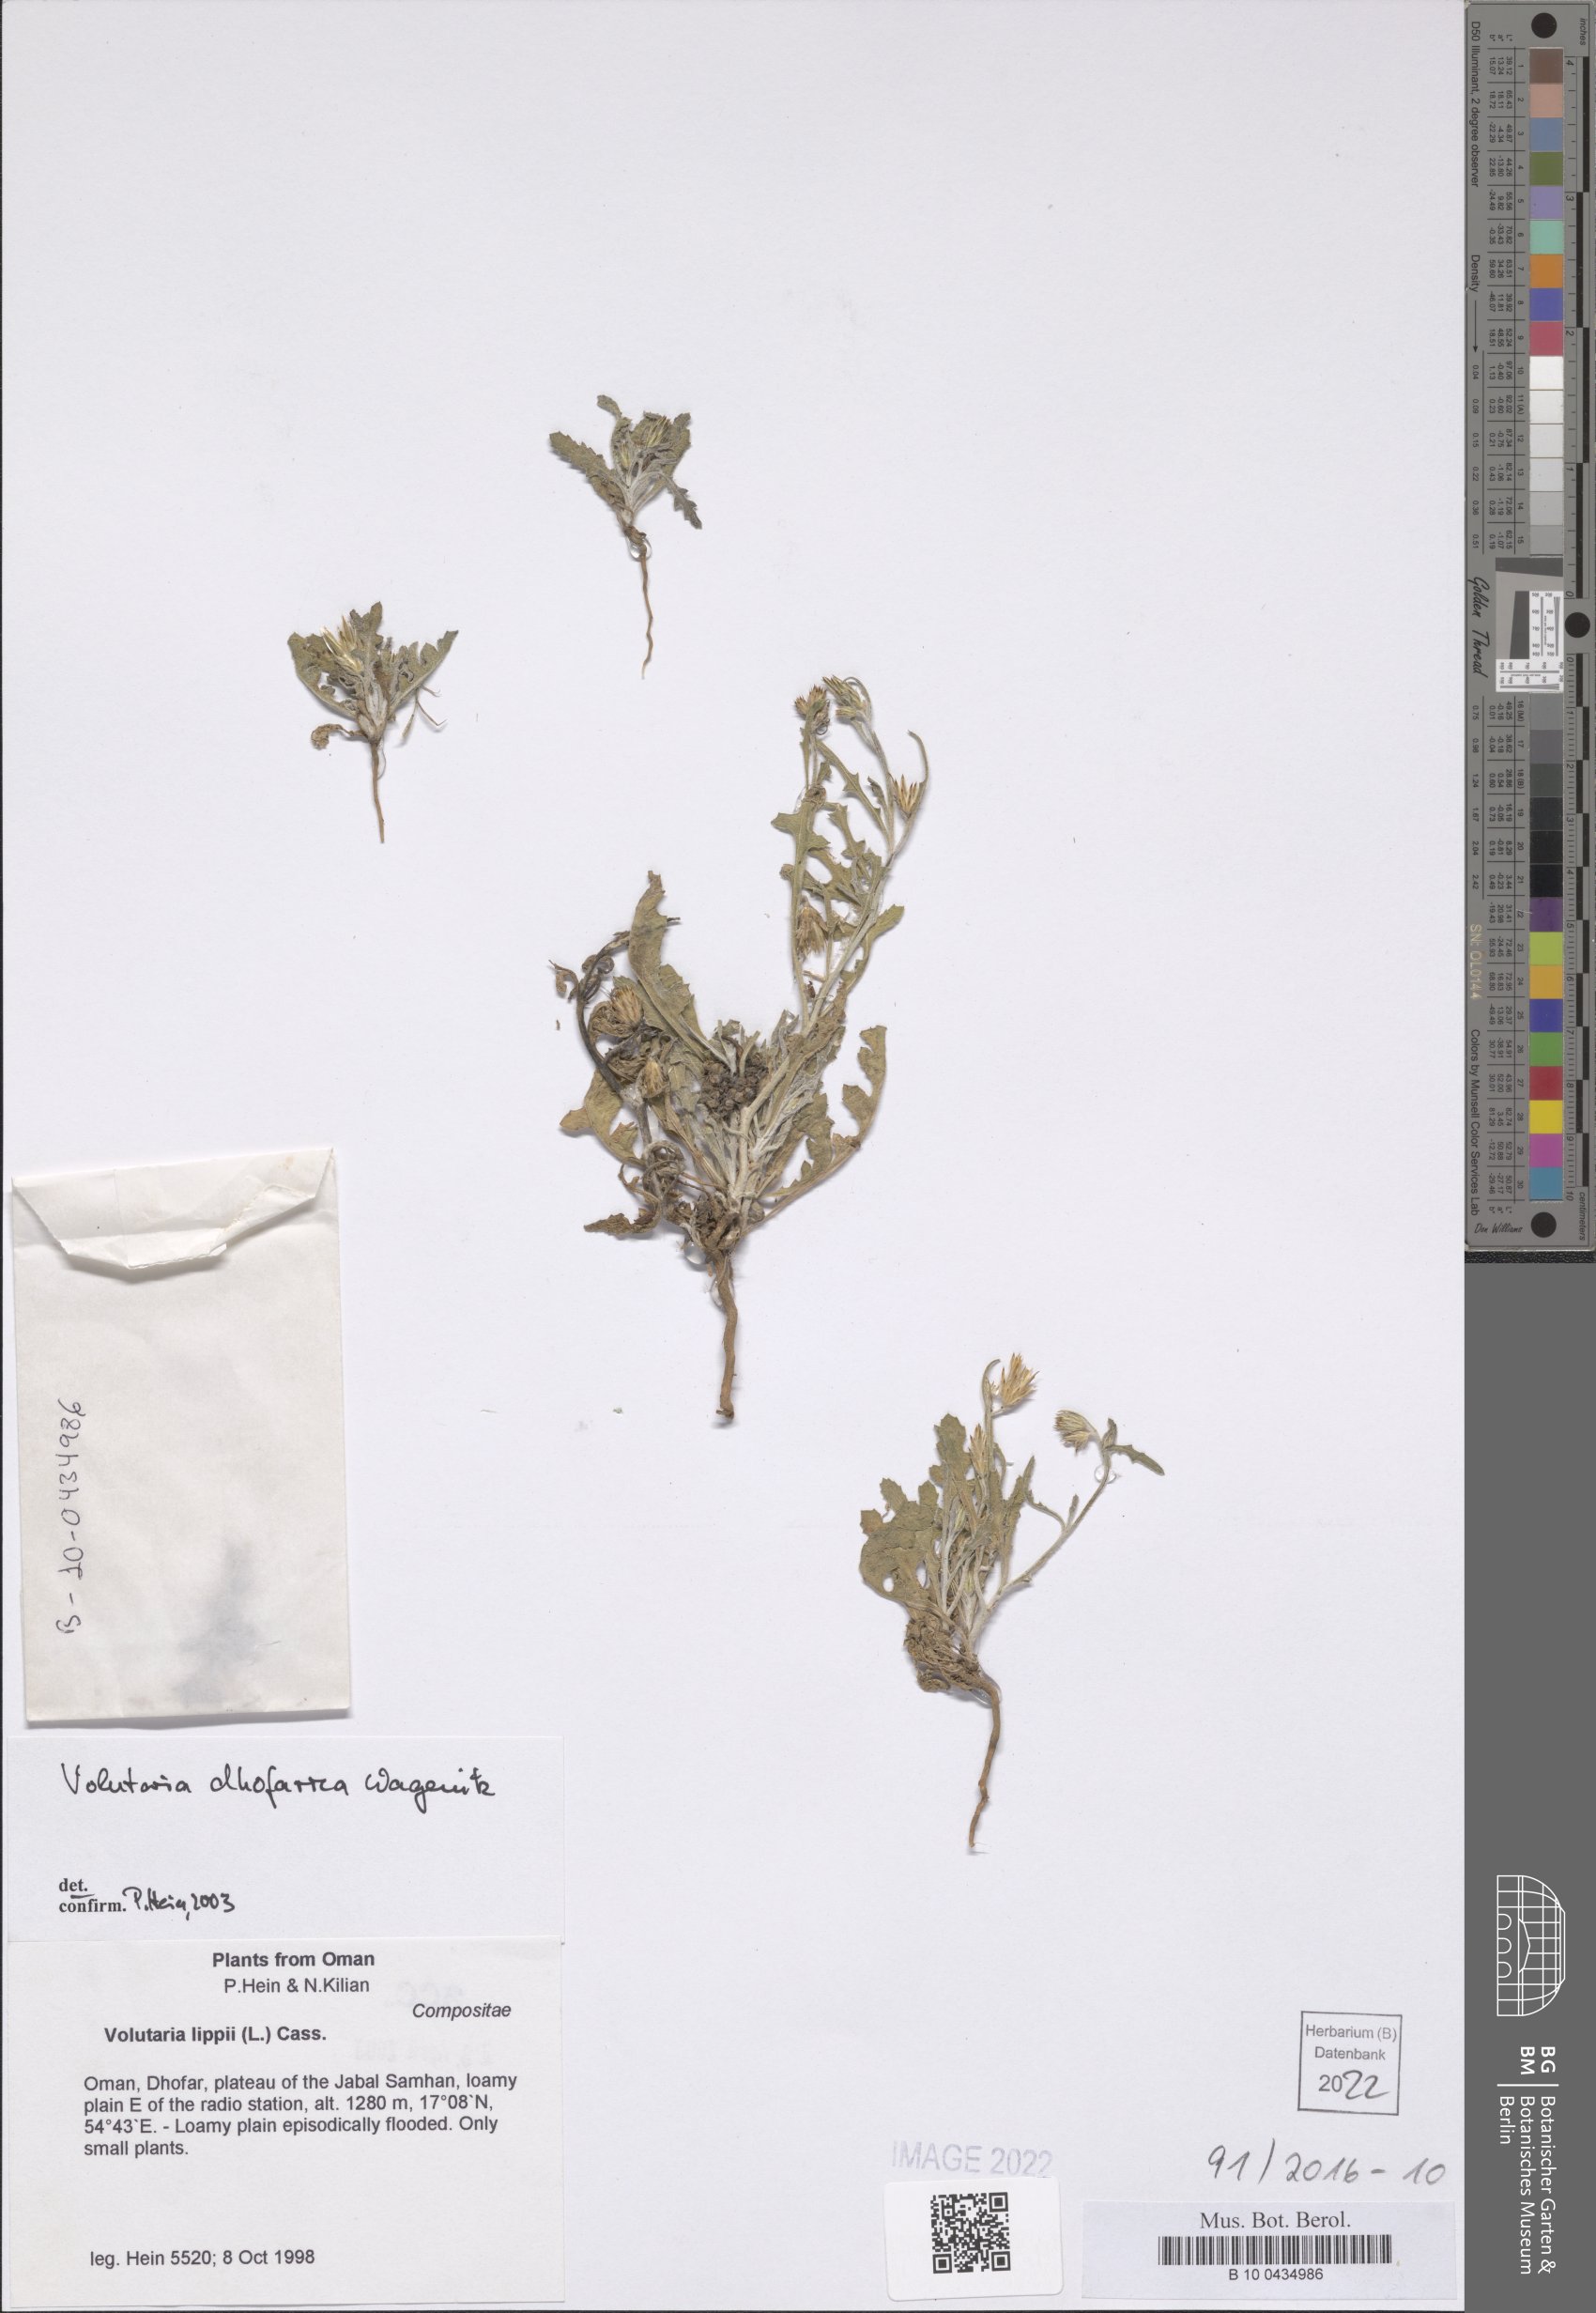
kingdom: Plantae
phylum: Tracheophyta
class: Magnoliopsida
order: Asterales
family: Asteraceae
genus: Volutaria
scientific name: Volutaria dhofarica
